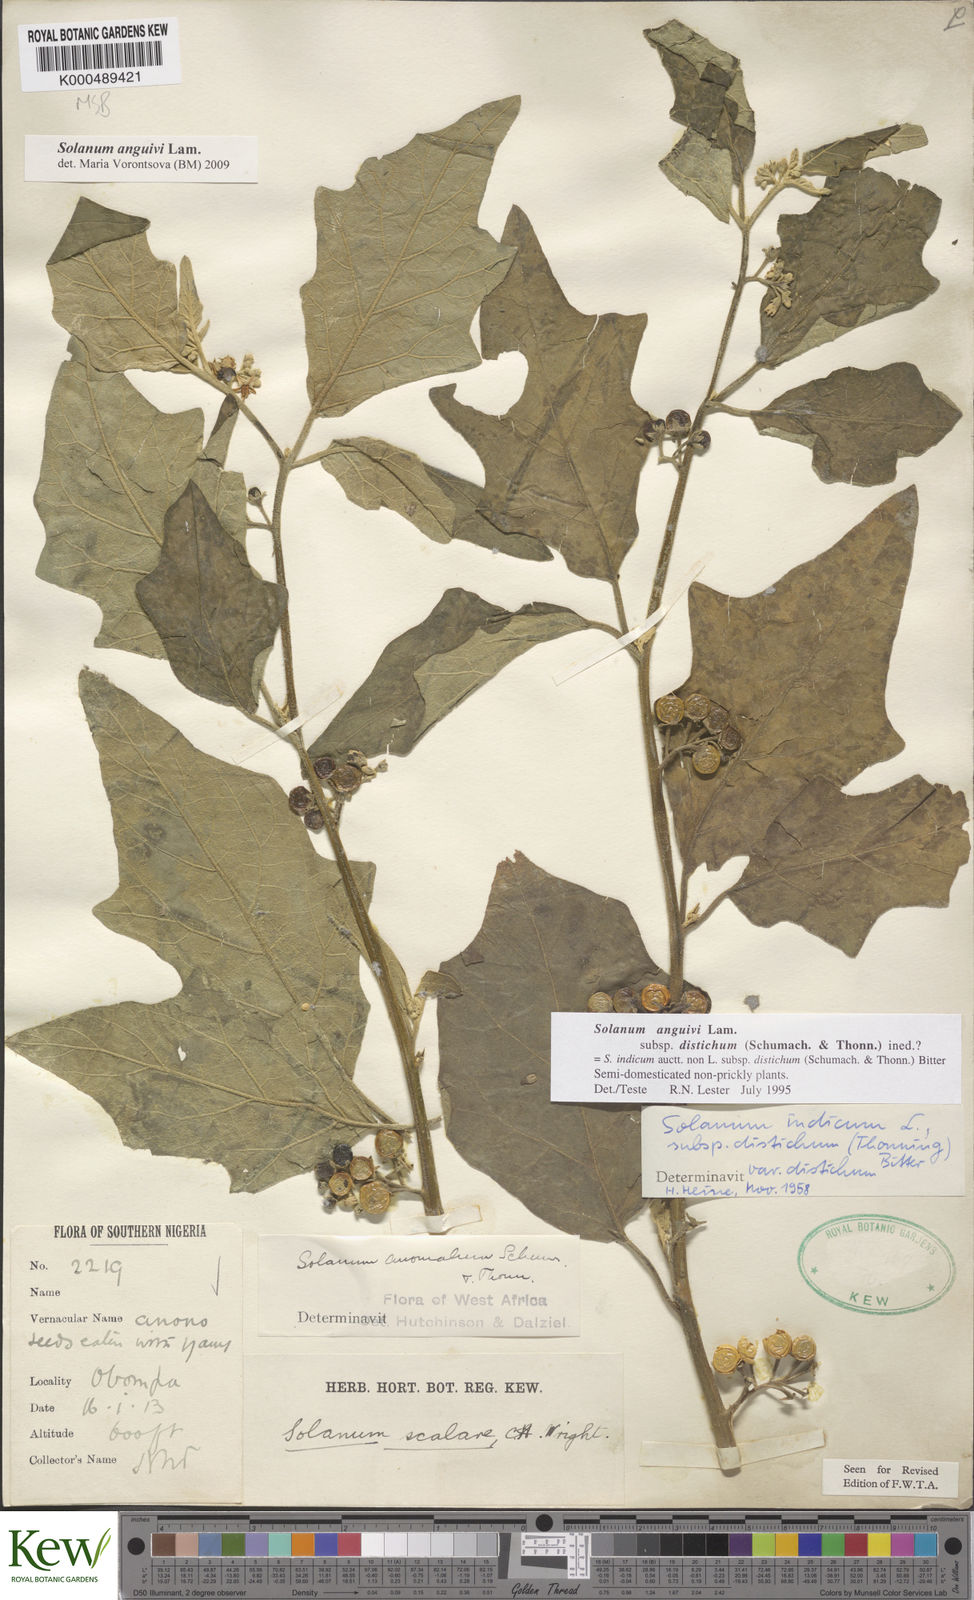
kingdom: Plantae
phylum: Tracheophyta
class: Magnoliopsida
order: Solanales
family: Solanaceae
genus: Solanum
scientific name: Solanum anguivi
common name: Forest bitterberry
